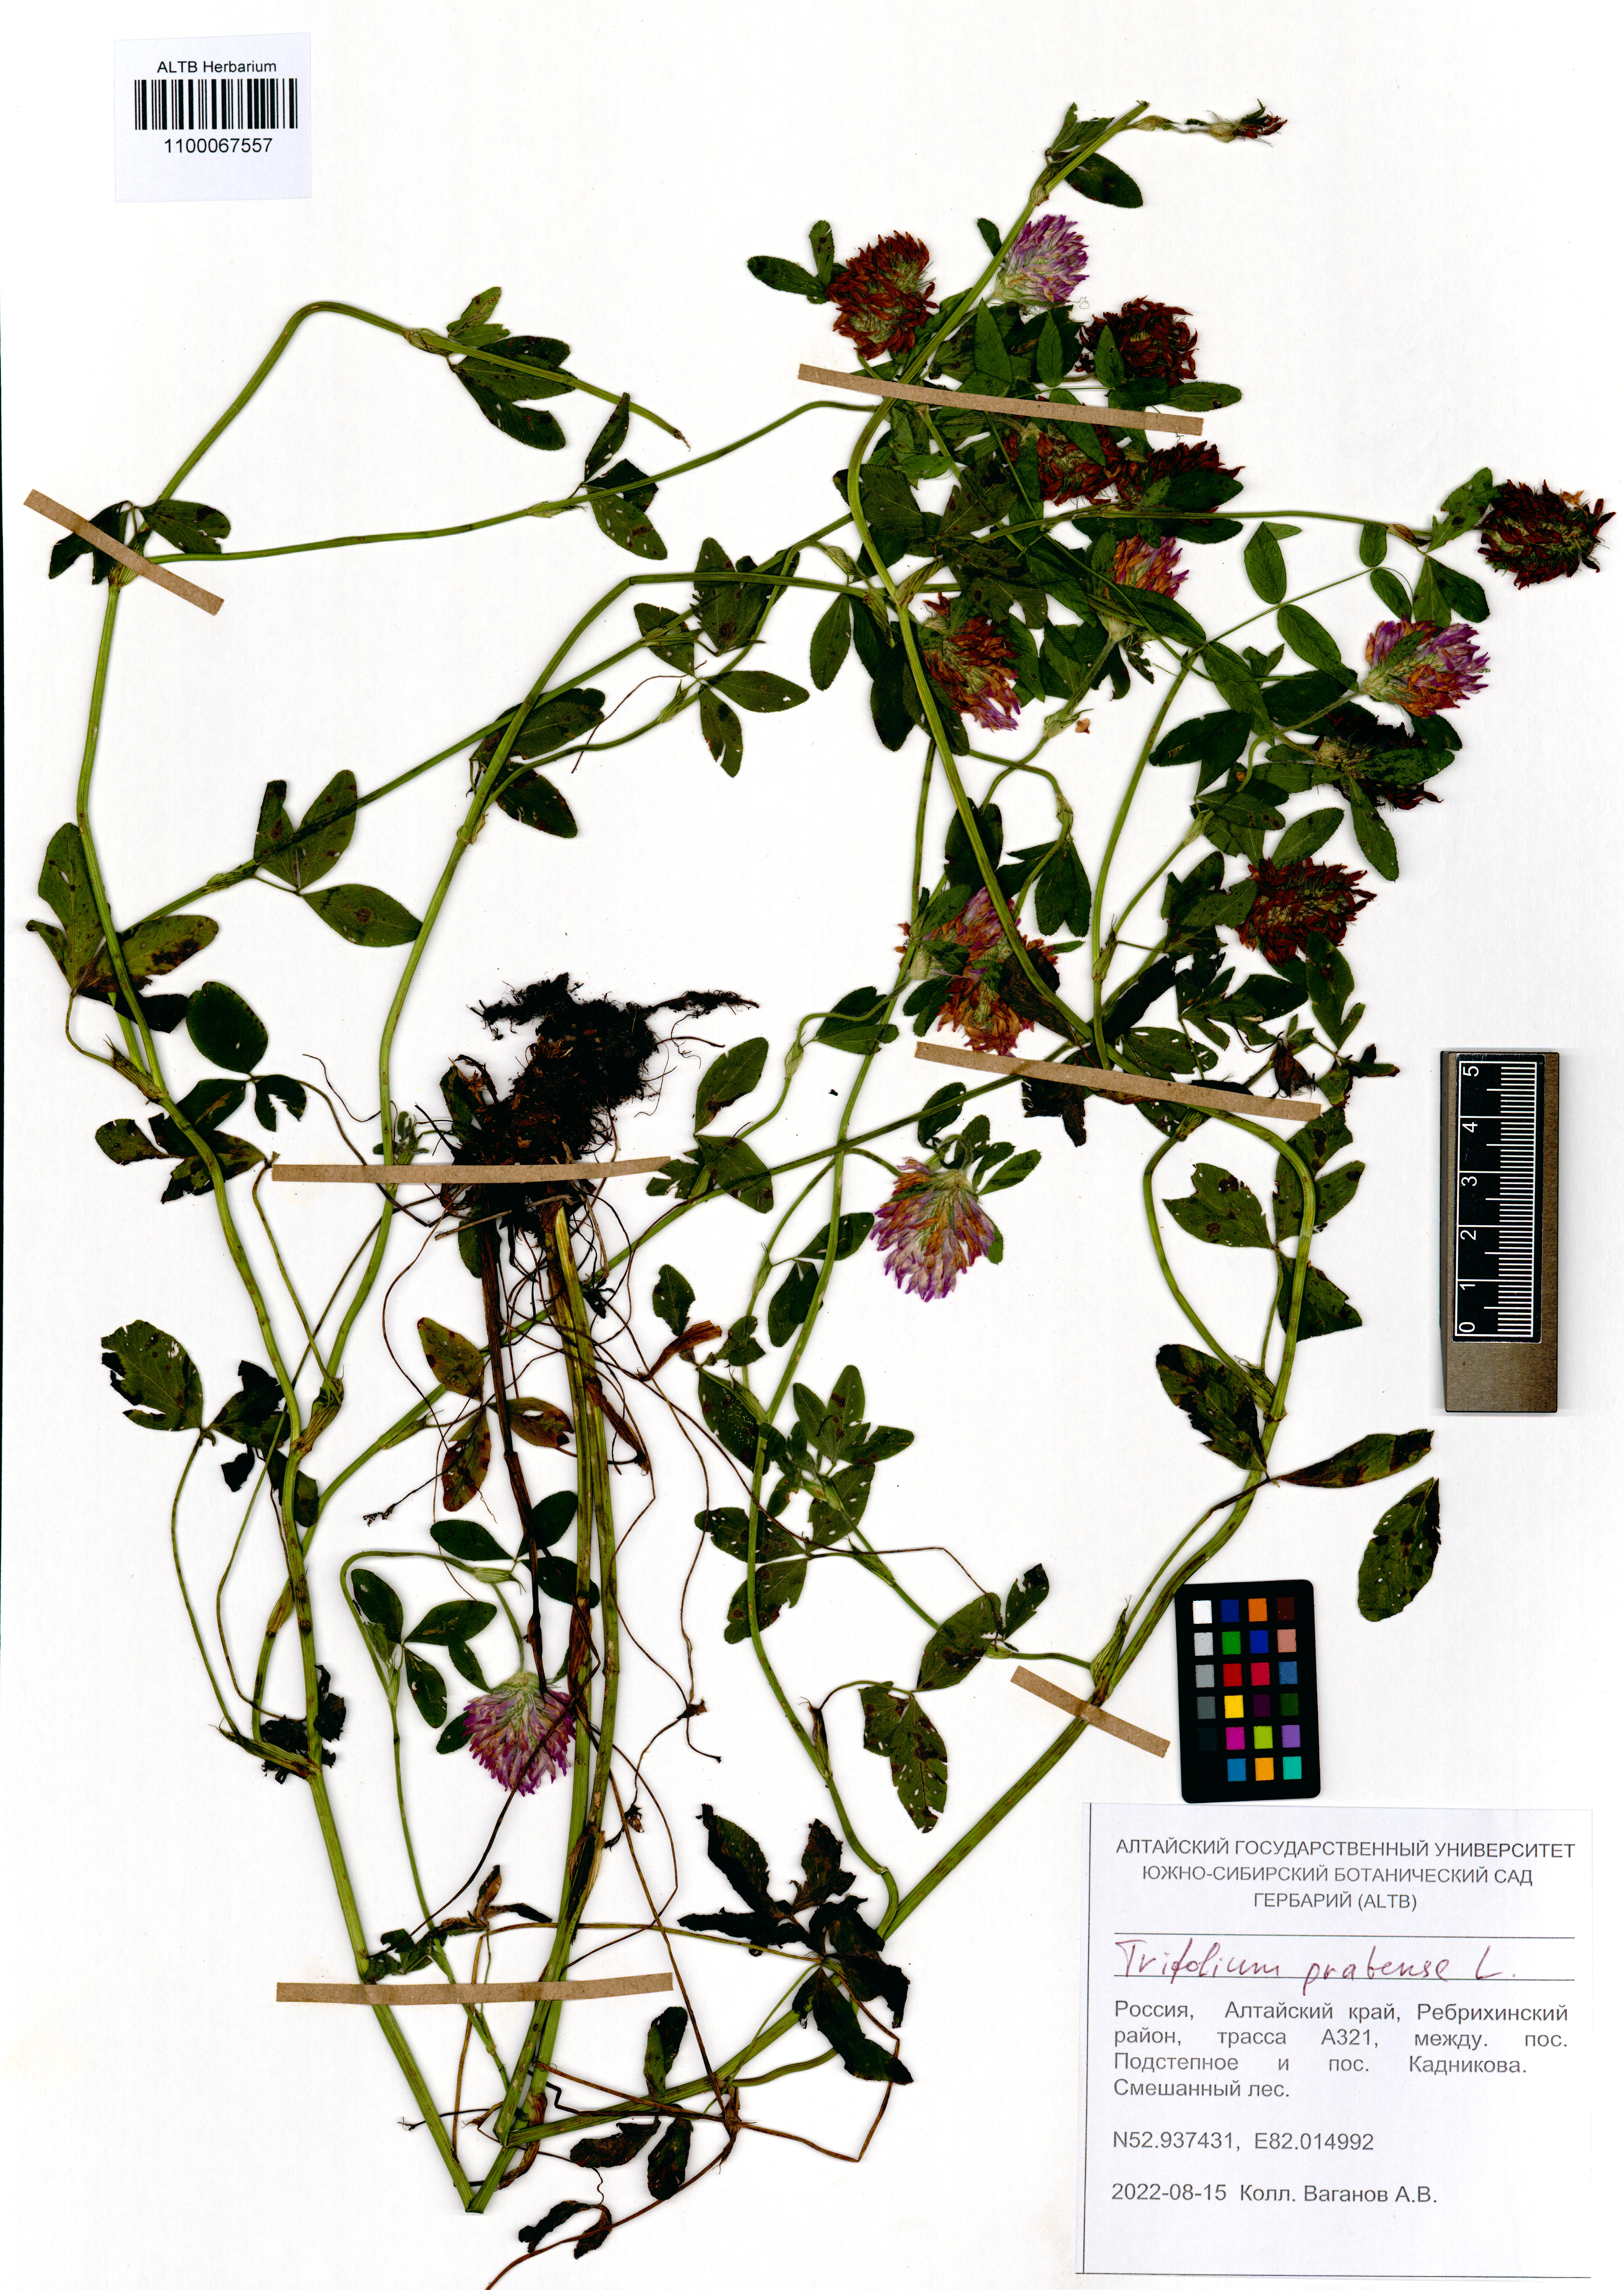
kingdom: Plantae
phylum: Tracheophyta
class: Magnoliopsida
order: Fabales
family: Fabaceae
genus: Trifolium
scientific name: Trifolium pratense
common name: Red clover
